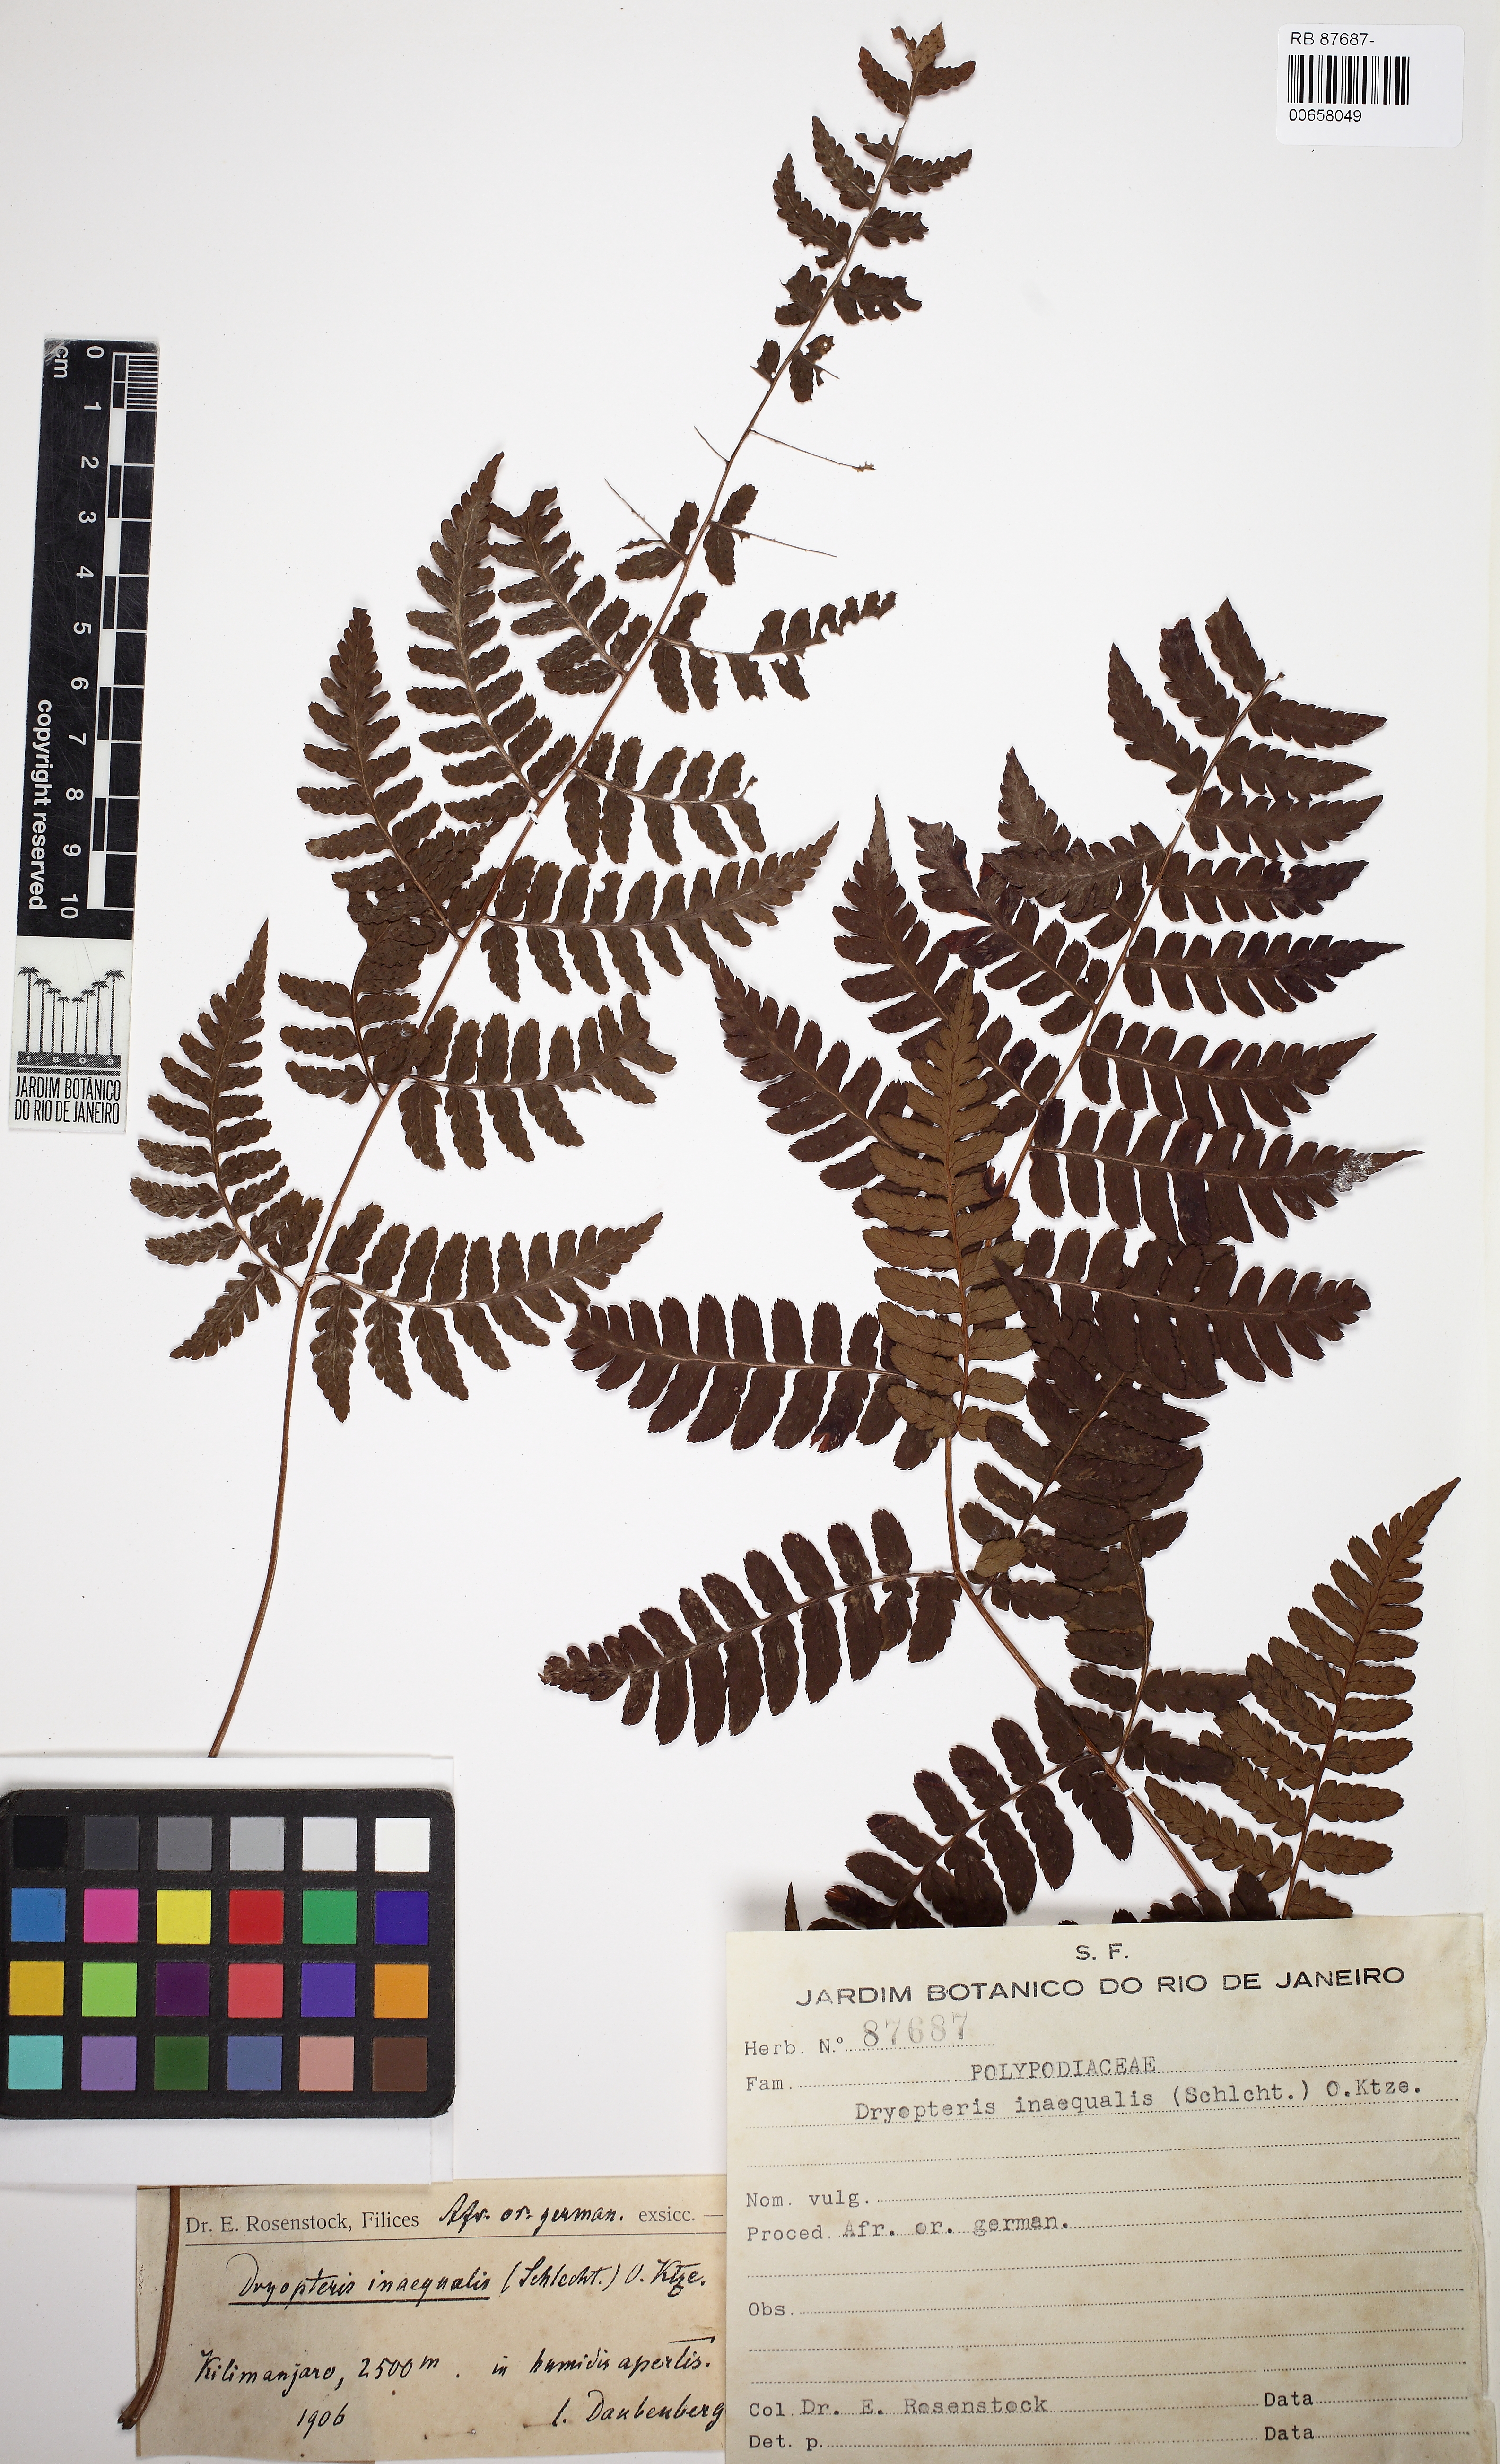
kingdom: Plantae
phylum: Tracheophyta
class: Polypodiopsida
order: Polypodiales
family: Dryopteridaceae
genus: Dryopteris
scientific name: Dryopteris inaequalis
